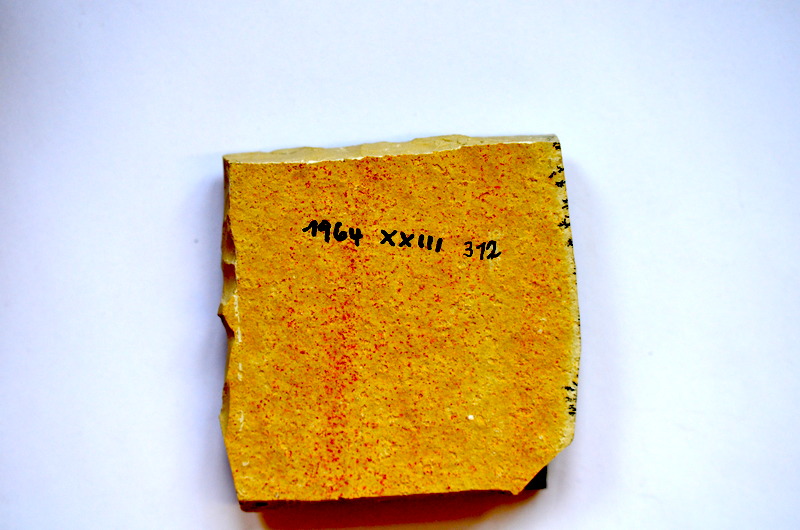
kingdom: Animalia
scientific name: Animalia
